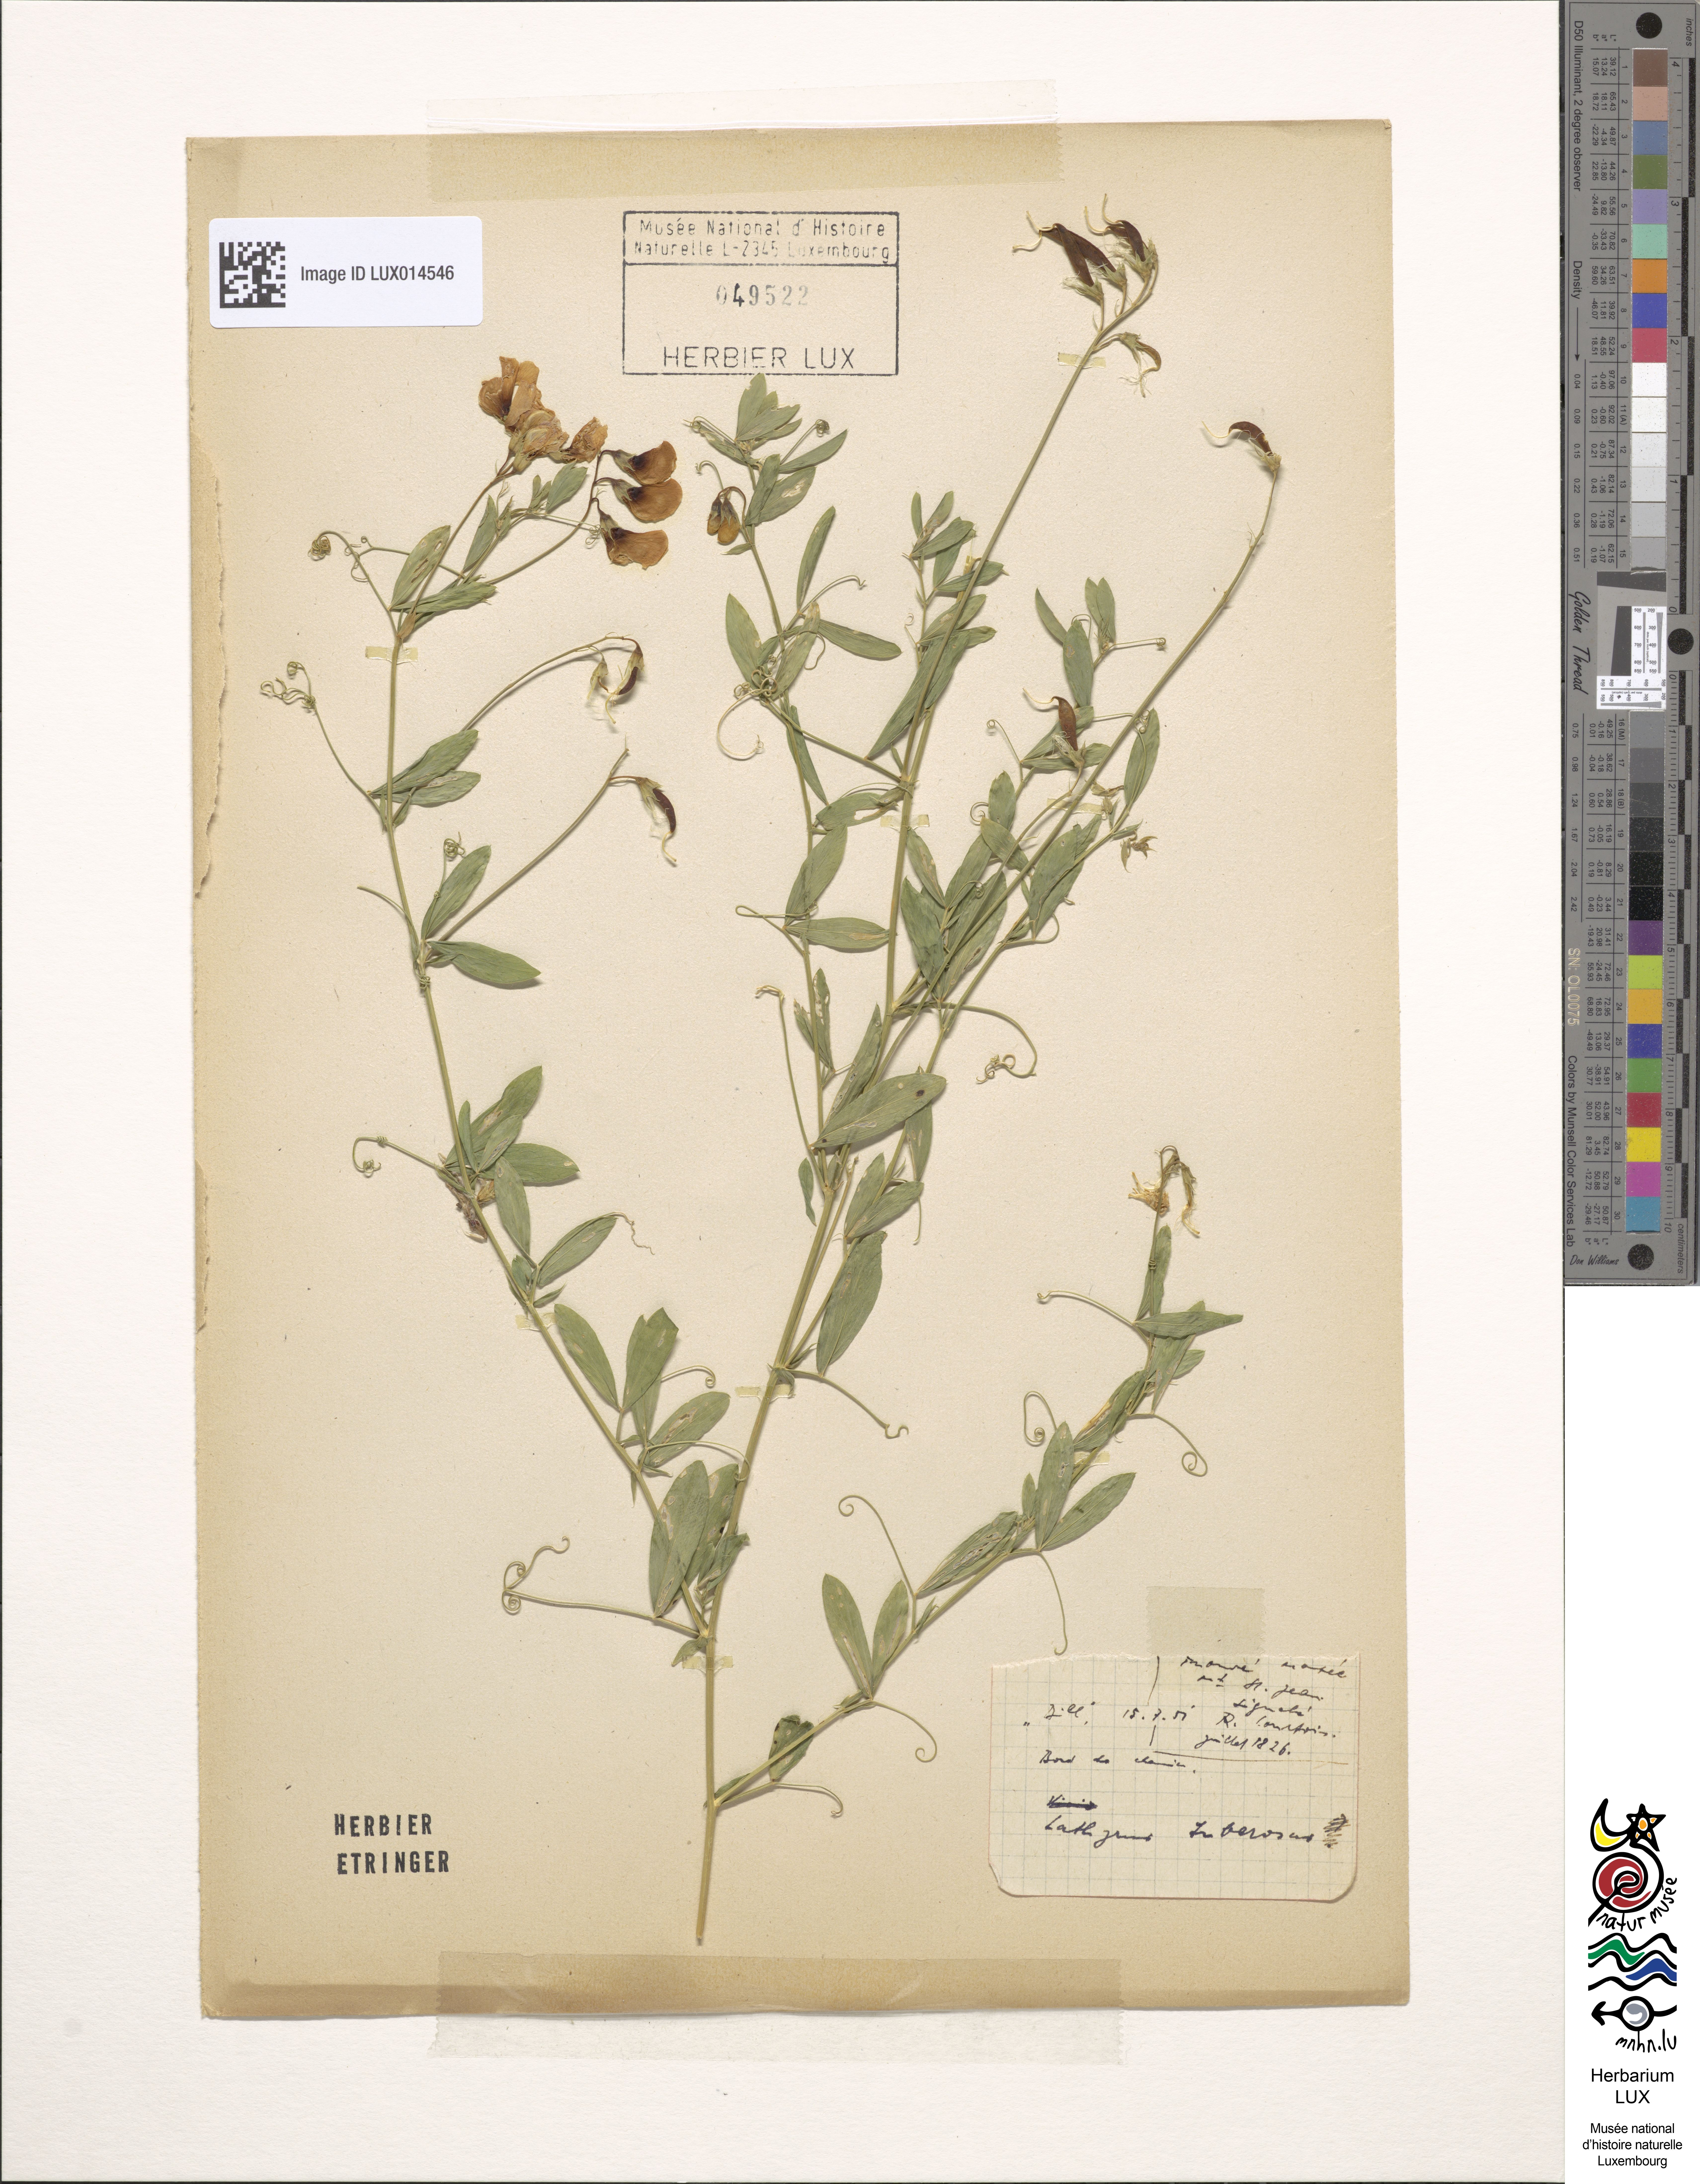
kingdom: Plantae
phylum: Tracheophyta
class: Magnoliopsida
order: Fabales
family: Fabaceae
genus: Lathyrus
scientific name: Lathyrus tuberosus
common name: Tuberous pea
